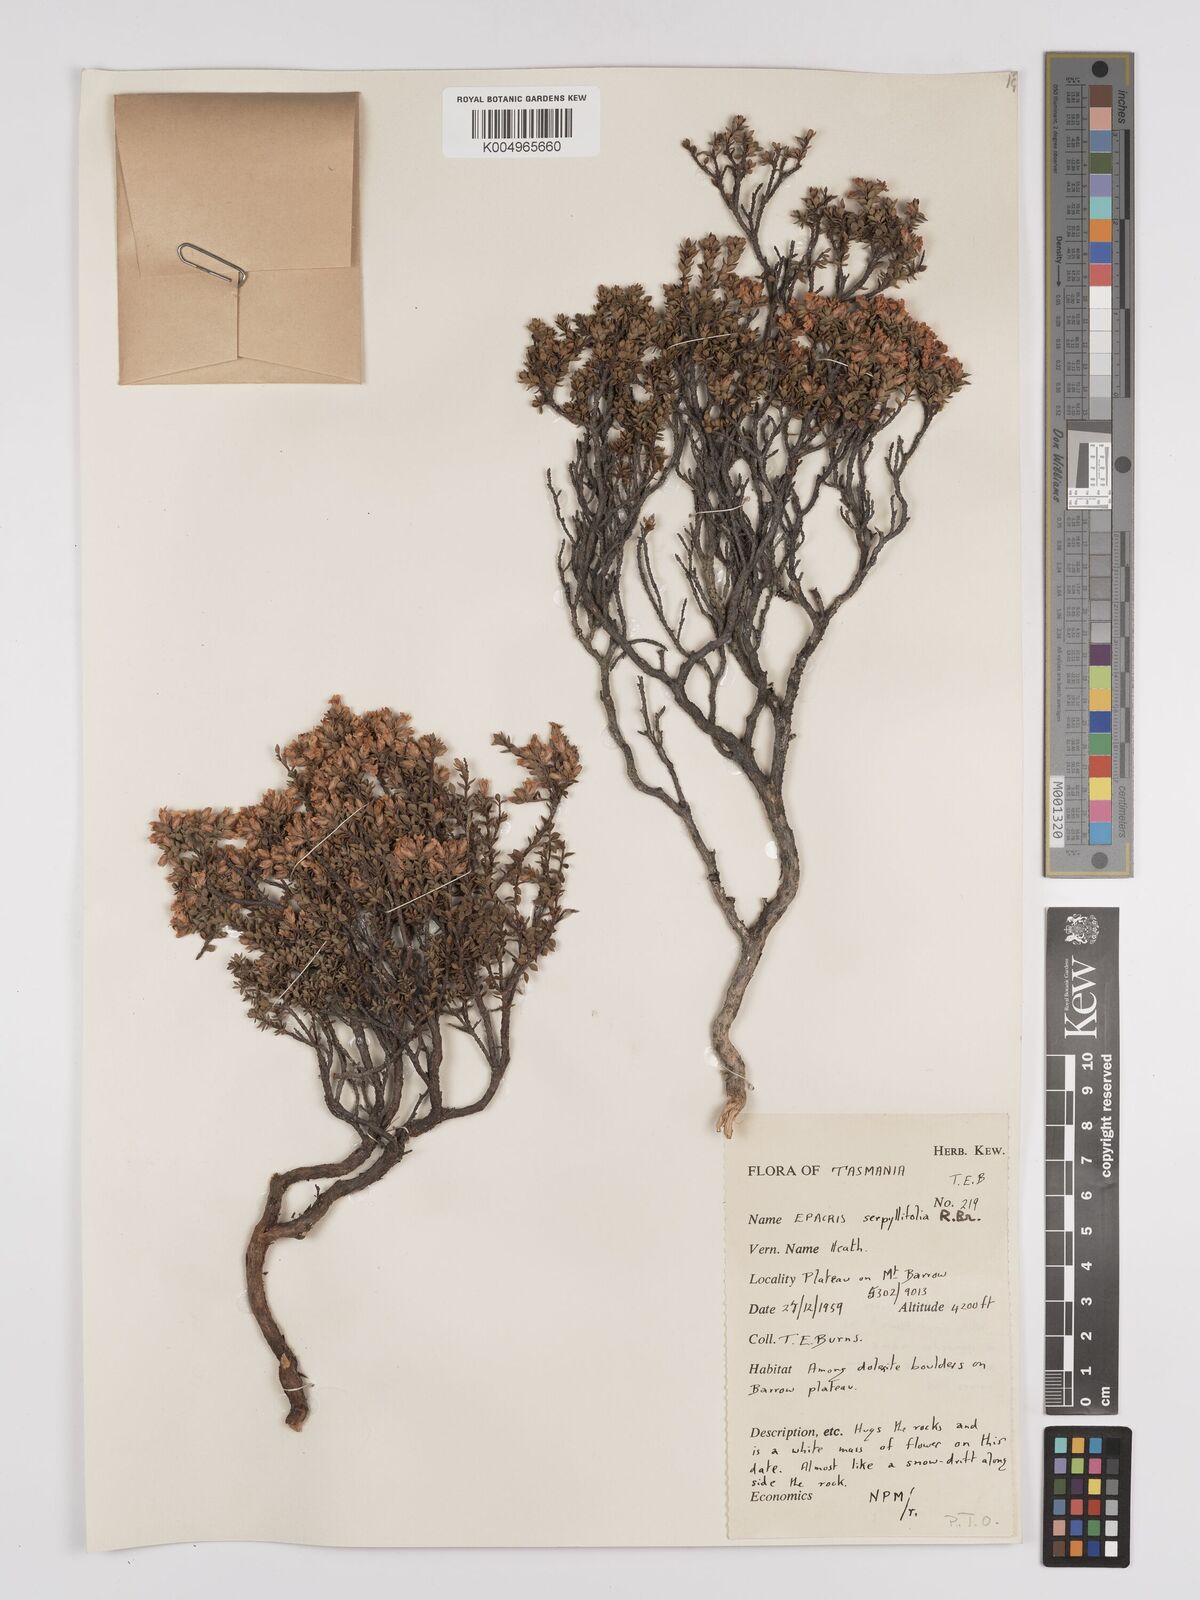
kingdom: Plantae
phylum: Tracheophyta
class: Magnoliopsida
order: Ericales
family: Ericaceae
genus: Epacris
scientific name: Epacris serpyllifolia
